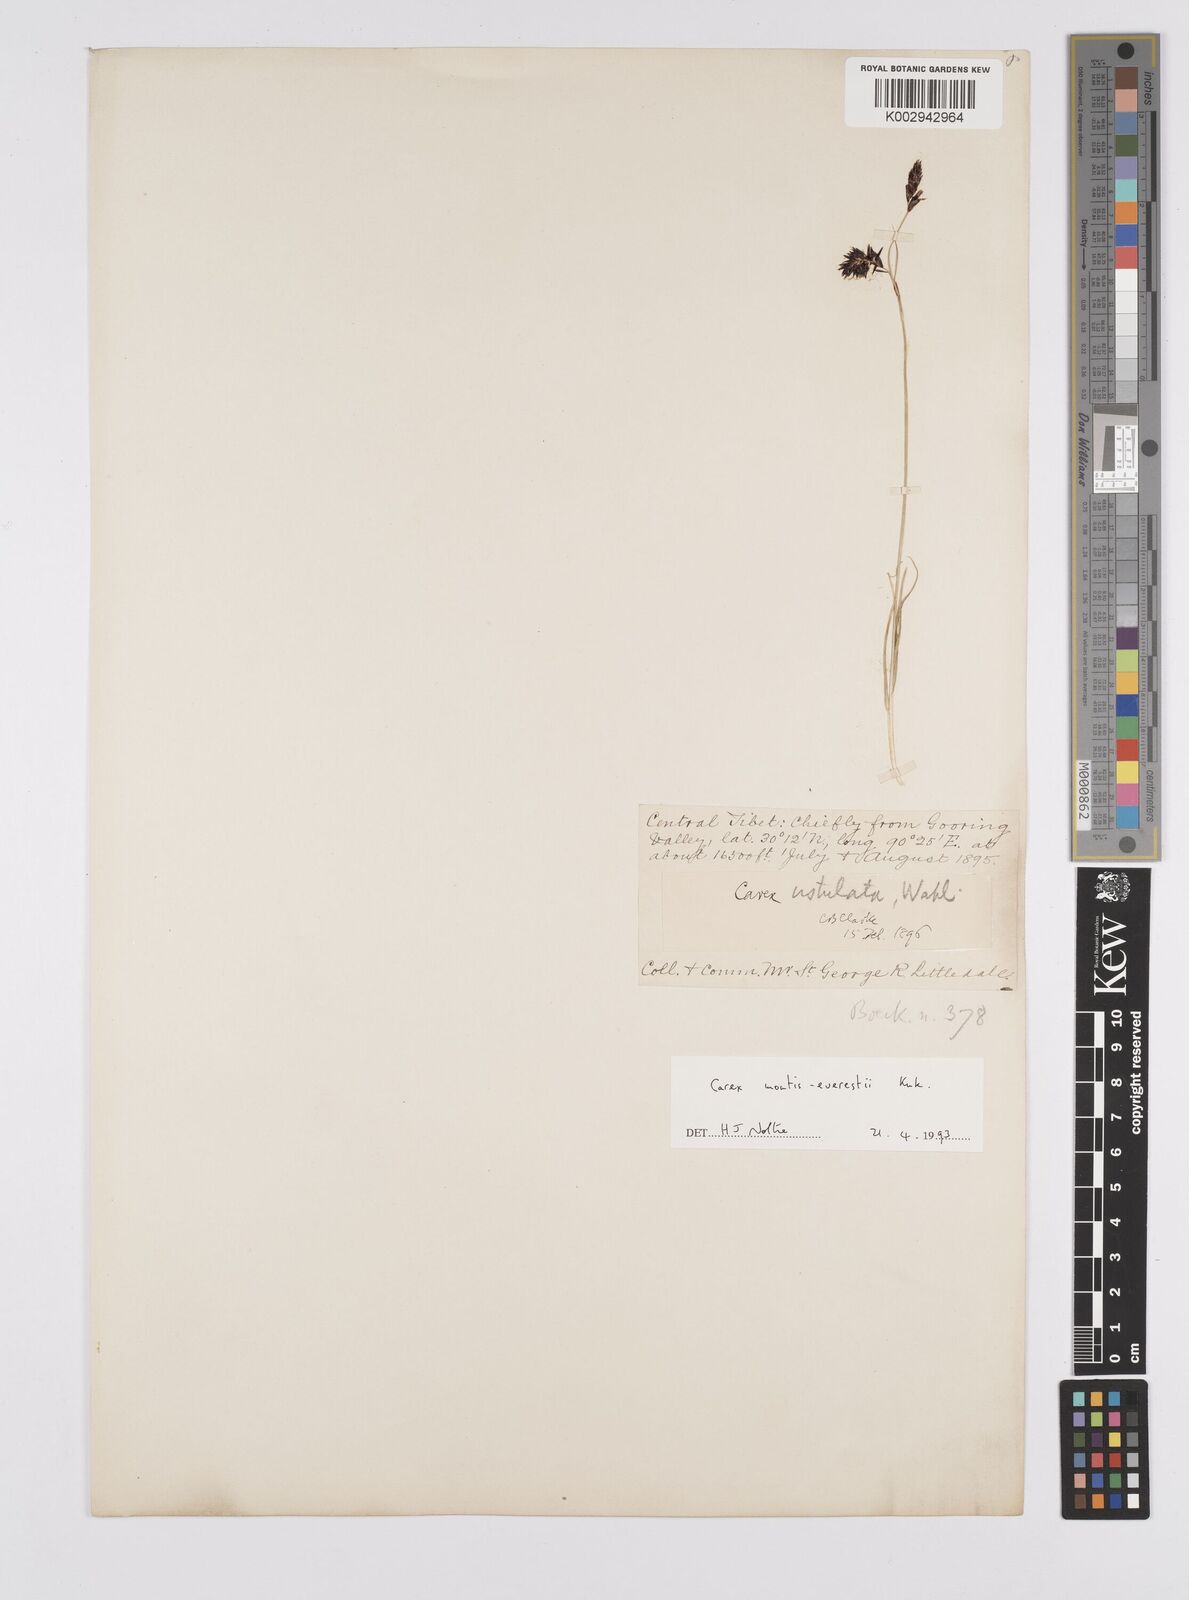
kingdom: Plantae
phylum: Tracheophyta
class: Liliopsida
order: Poales
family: Cyperaceae
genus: Carex
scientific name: Carex montis-everestii
